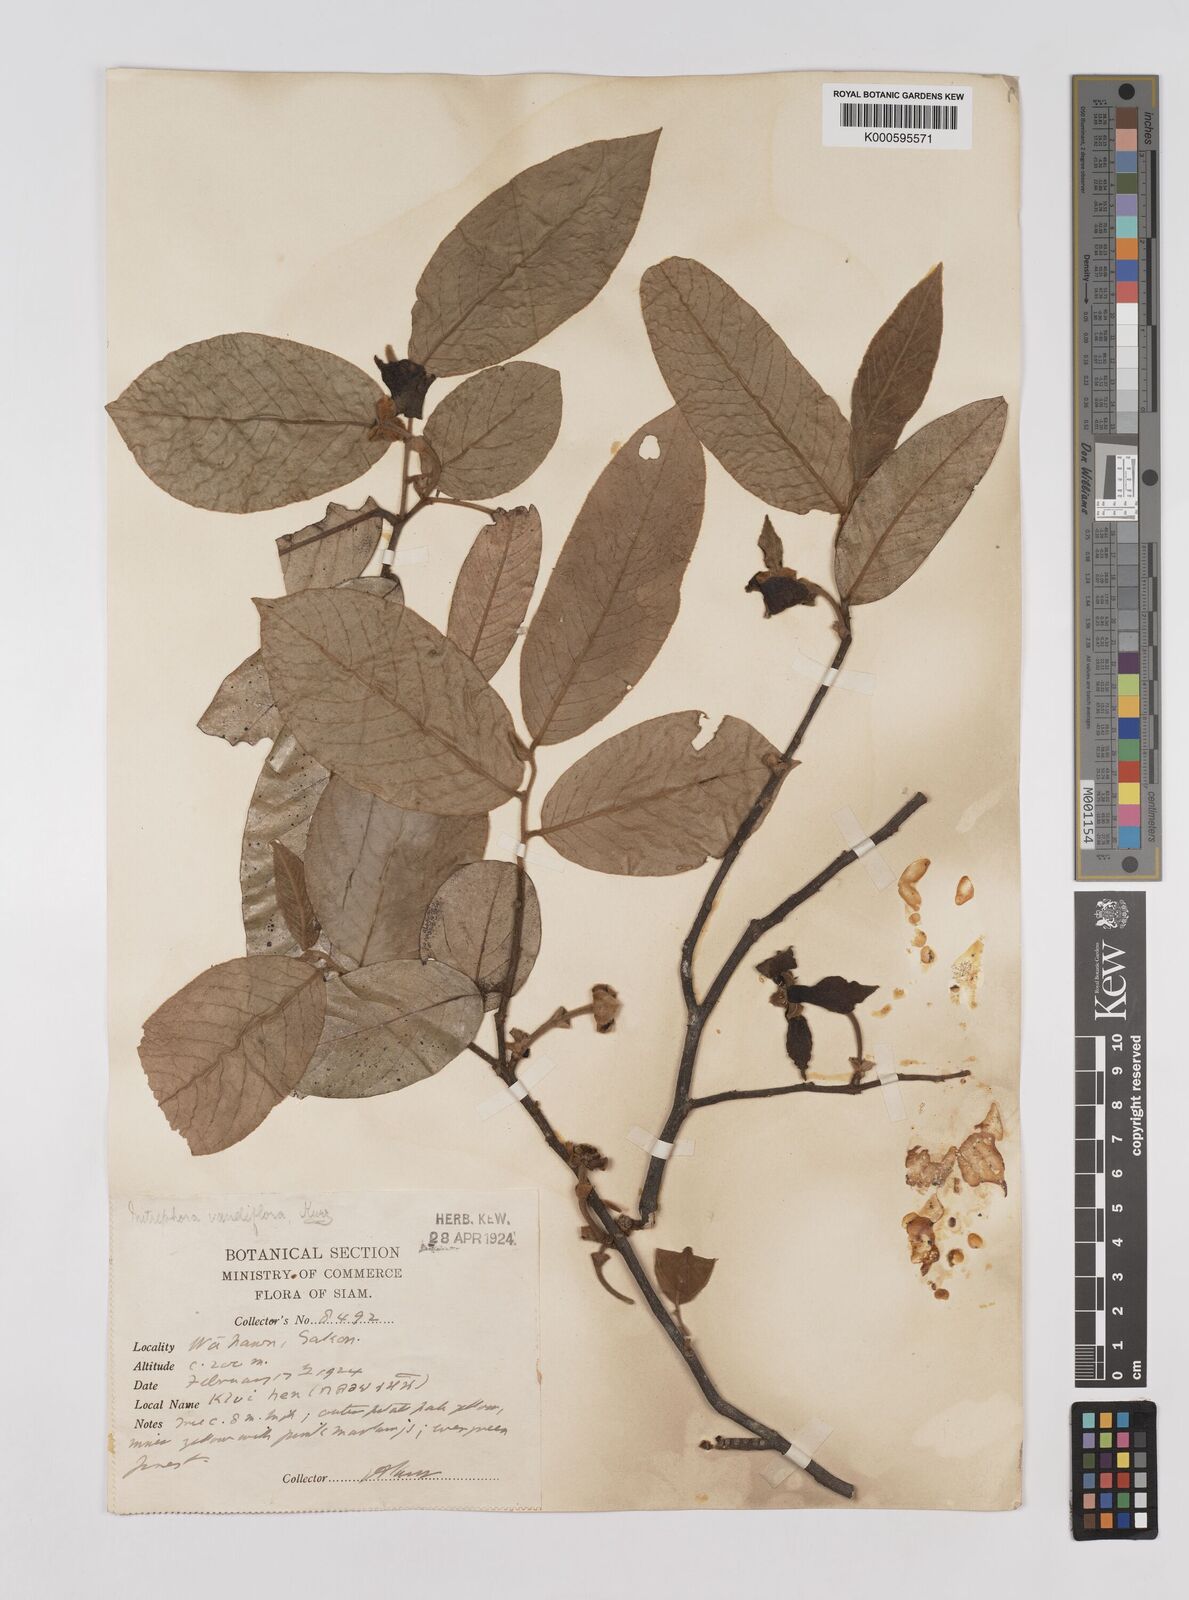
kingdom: Plantae
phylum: Tracheophyta
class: Magnoliopsida
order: Magnoliales
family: Annonaceae
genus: Mitrephora
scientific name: Mitrephora teysmannii
